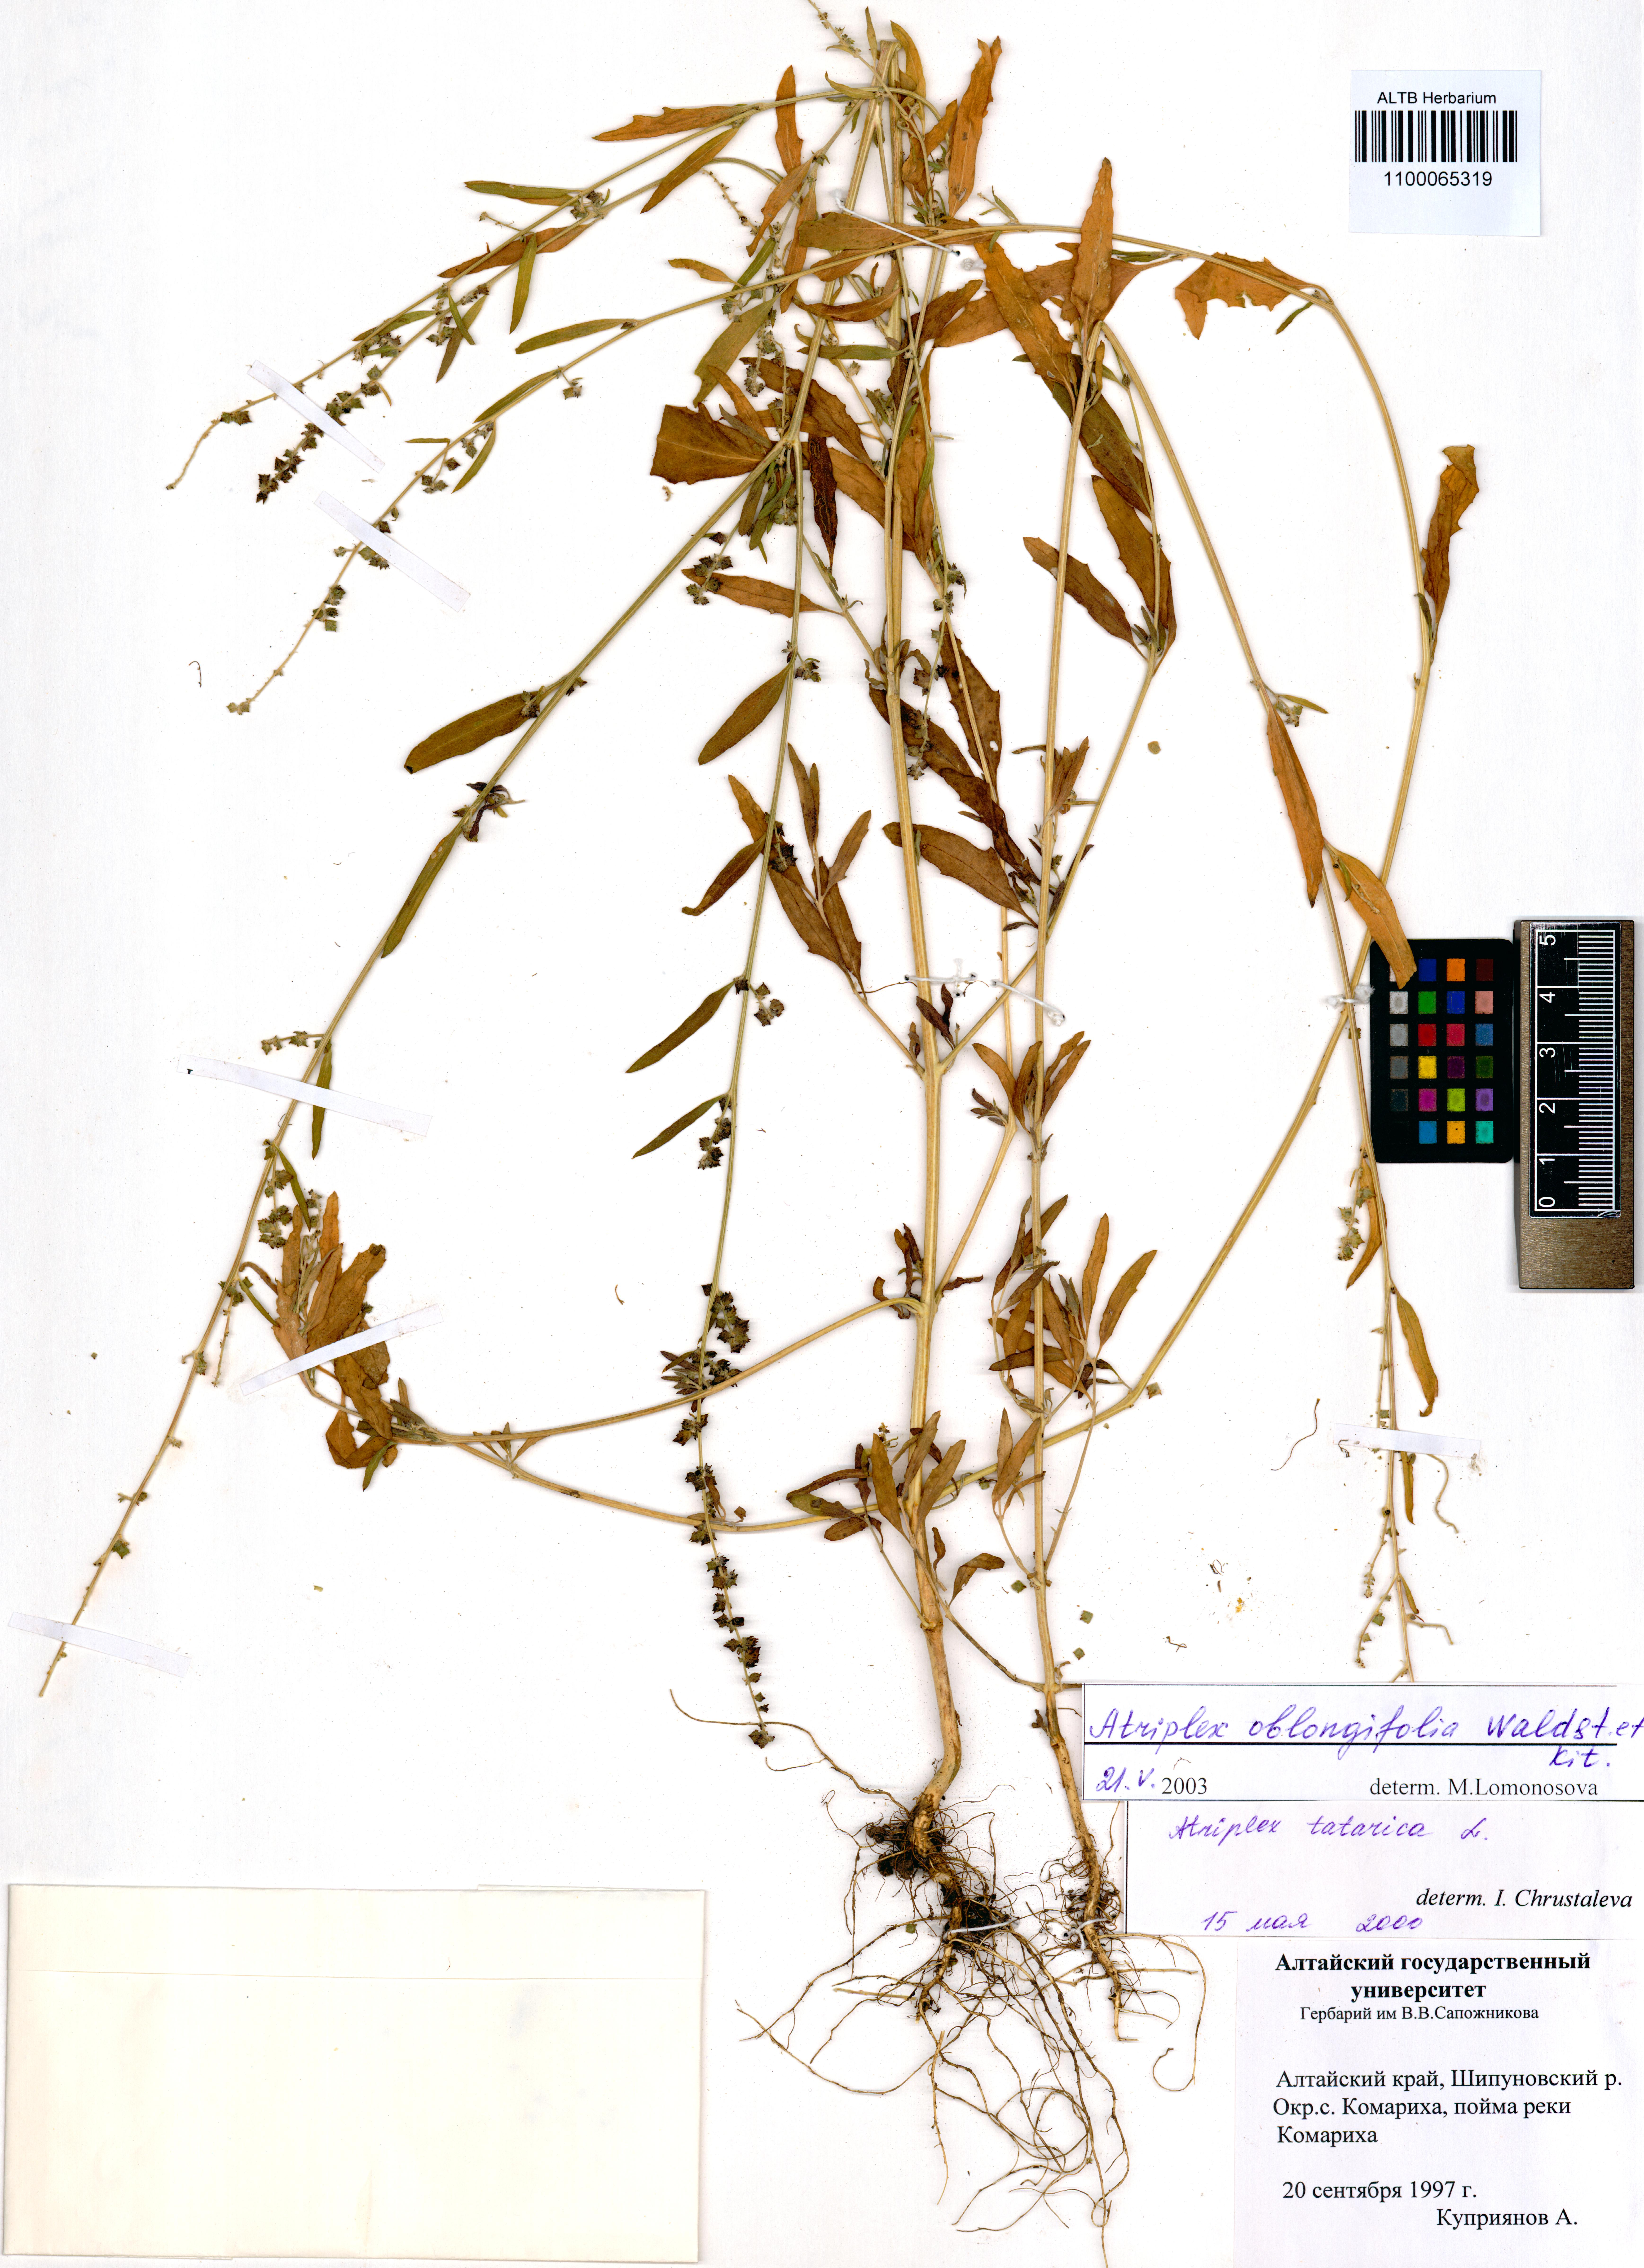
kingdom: Plantae
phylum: Tracheophyta
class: Magnoliopsida
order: Caryophyllales
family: Amaranthaceae
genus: Atriplex
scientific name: Atriplex oblongifolia
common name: Oblongleaf orache
